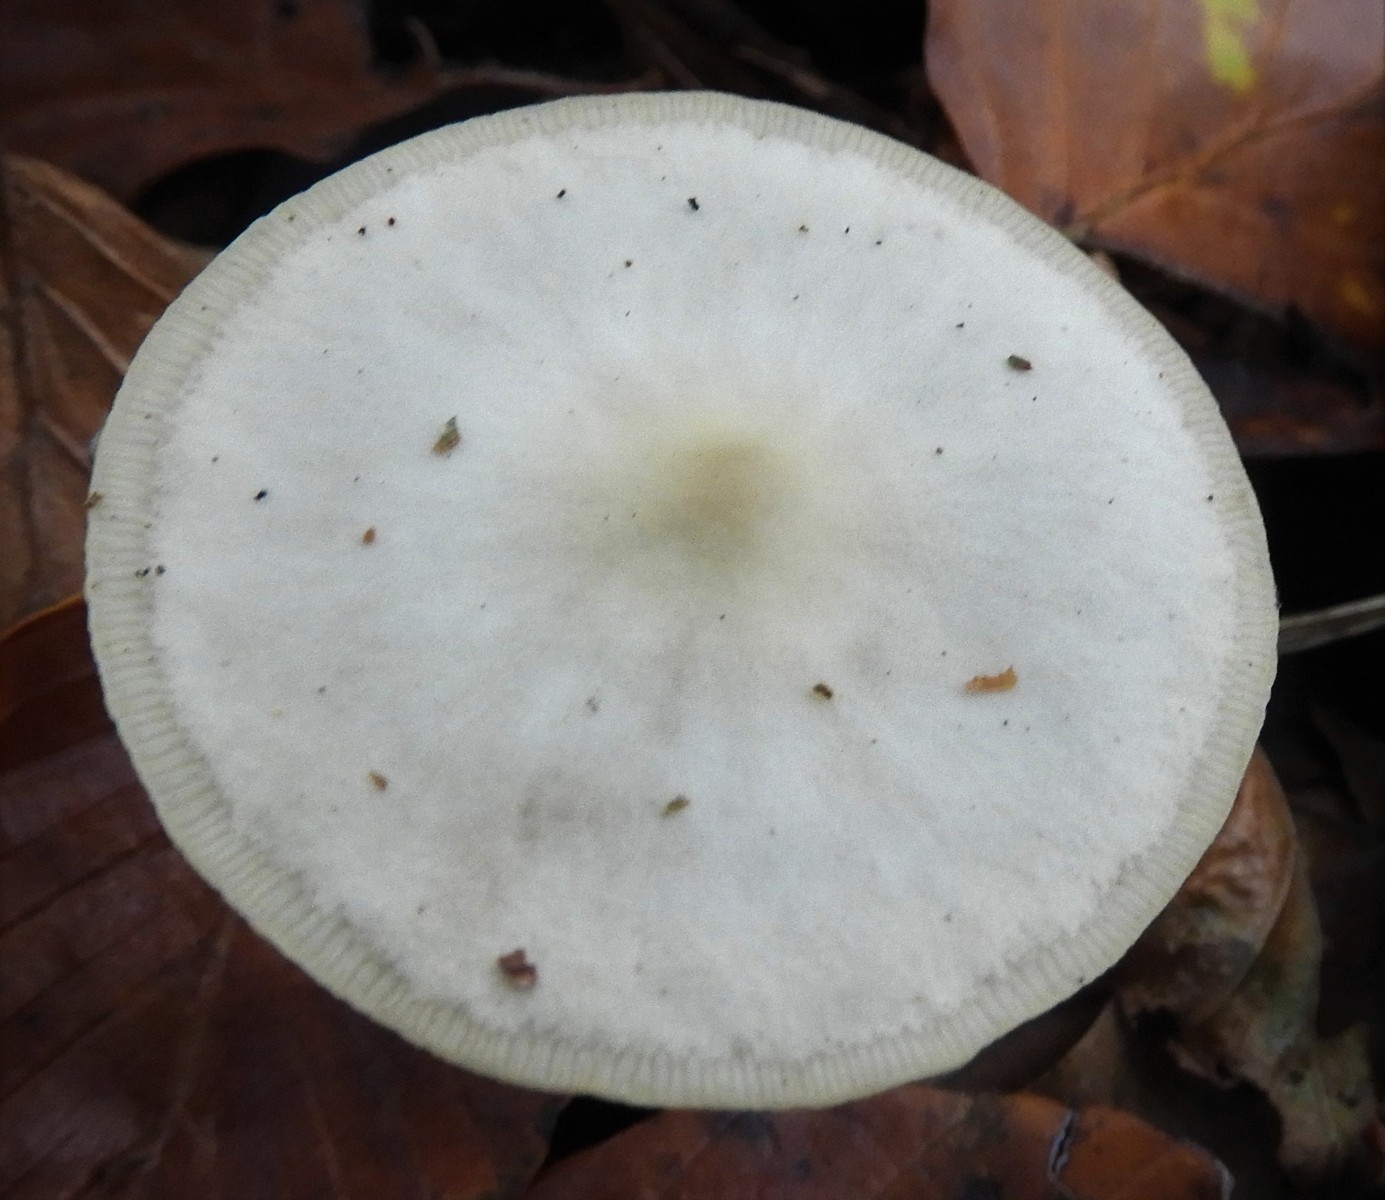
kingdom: Fungi
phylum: Basidiomycota
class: Agaricomycetes
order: Agaricales
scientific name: Agaricales
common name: champignonordenen
